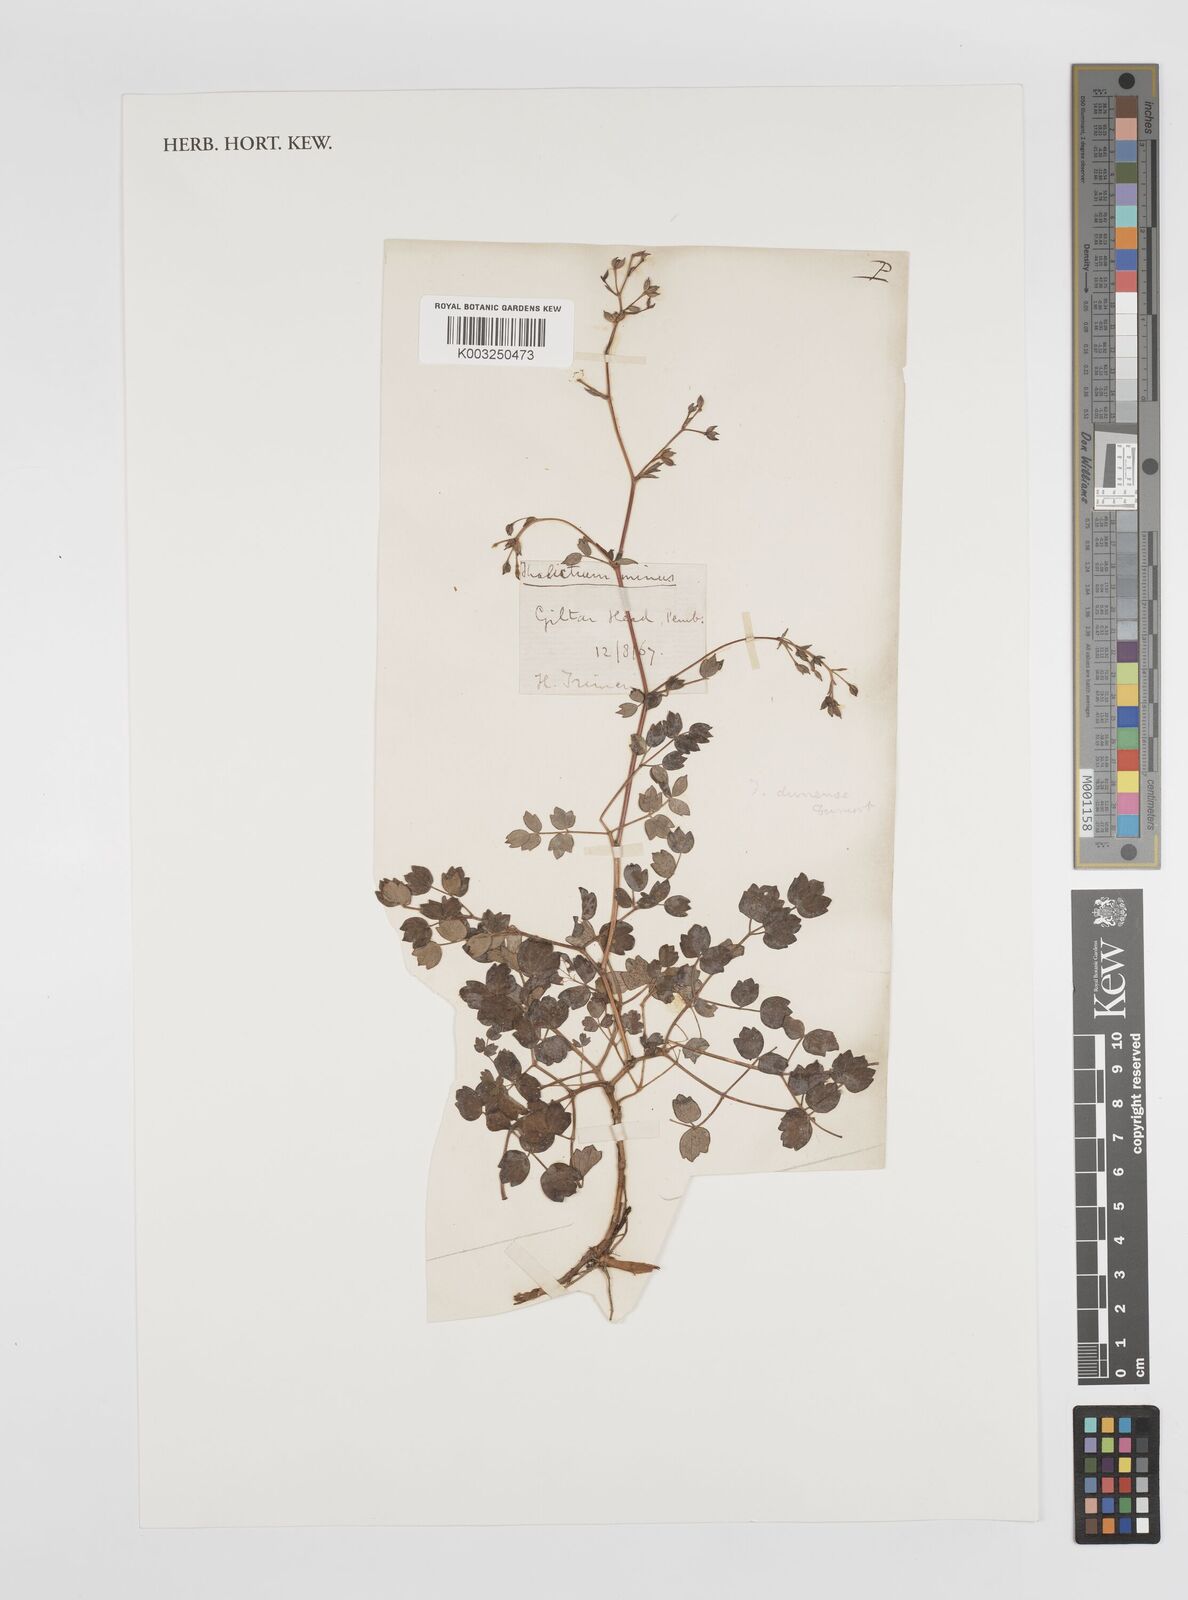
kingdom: Plantae
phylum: Tracheophyta
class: Magnoliopsida
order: Ranunculales
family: Ranunculaceae
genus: Thalictrum
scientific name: Thalictrum minus
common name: Lesser meadow-rue
